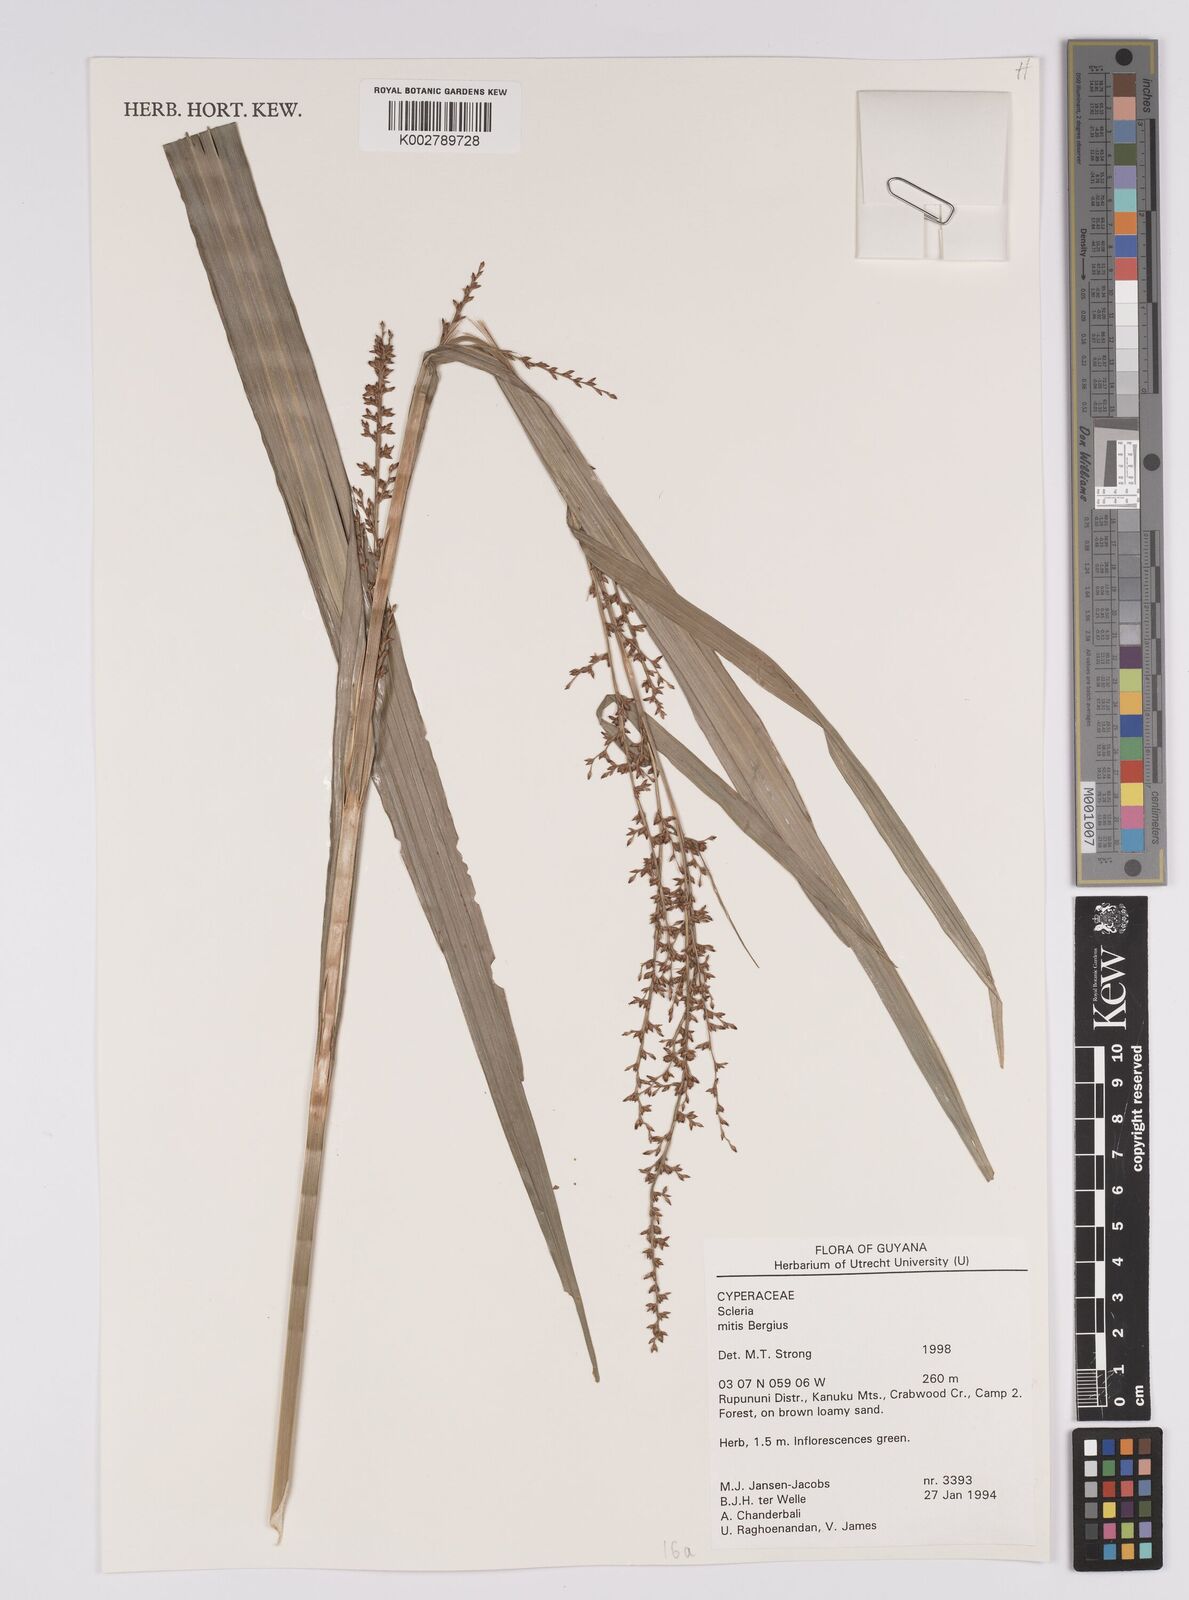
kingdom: Plantae
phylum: Tracheophyta
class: Liliopsida
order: Poales
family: Cyperaceae
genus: Scleria
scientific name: Scleria mitis
